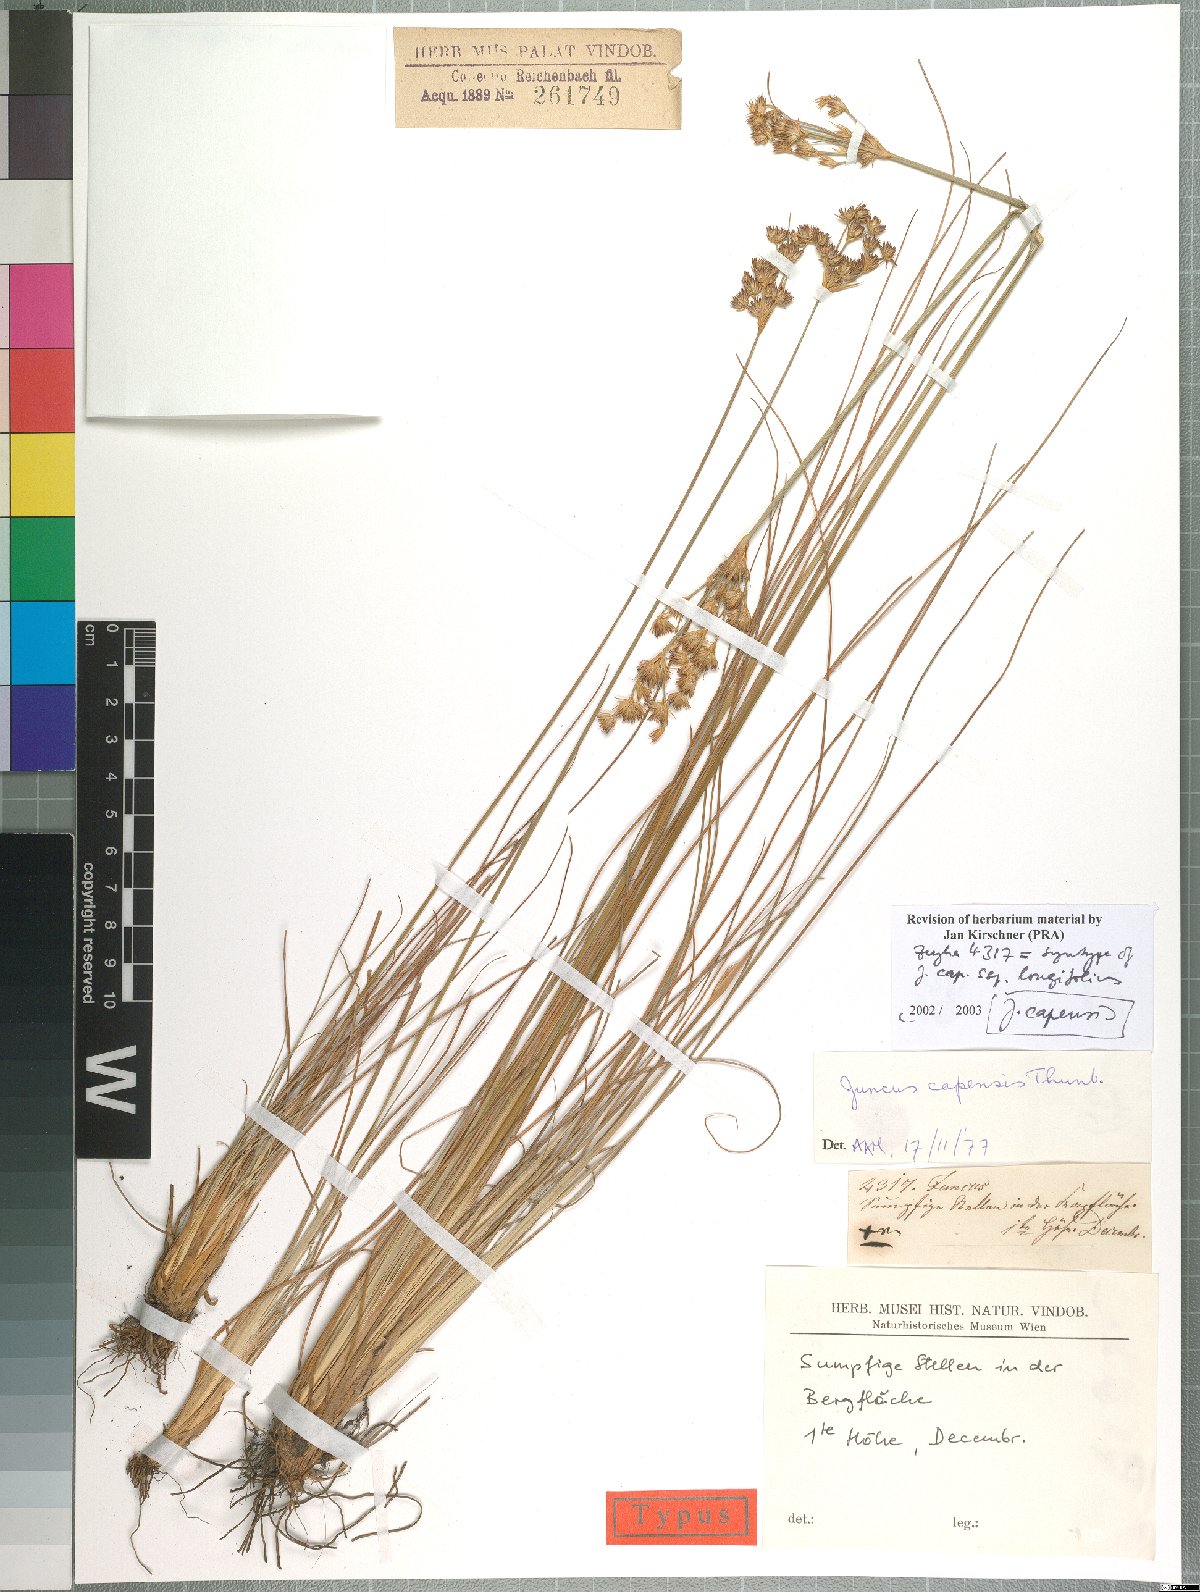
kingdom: Plantae
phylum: Tracheophyta
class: Liliopsida
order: Poales
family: Juncaceae
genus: Juncus
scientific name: Juncus capensis
